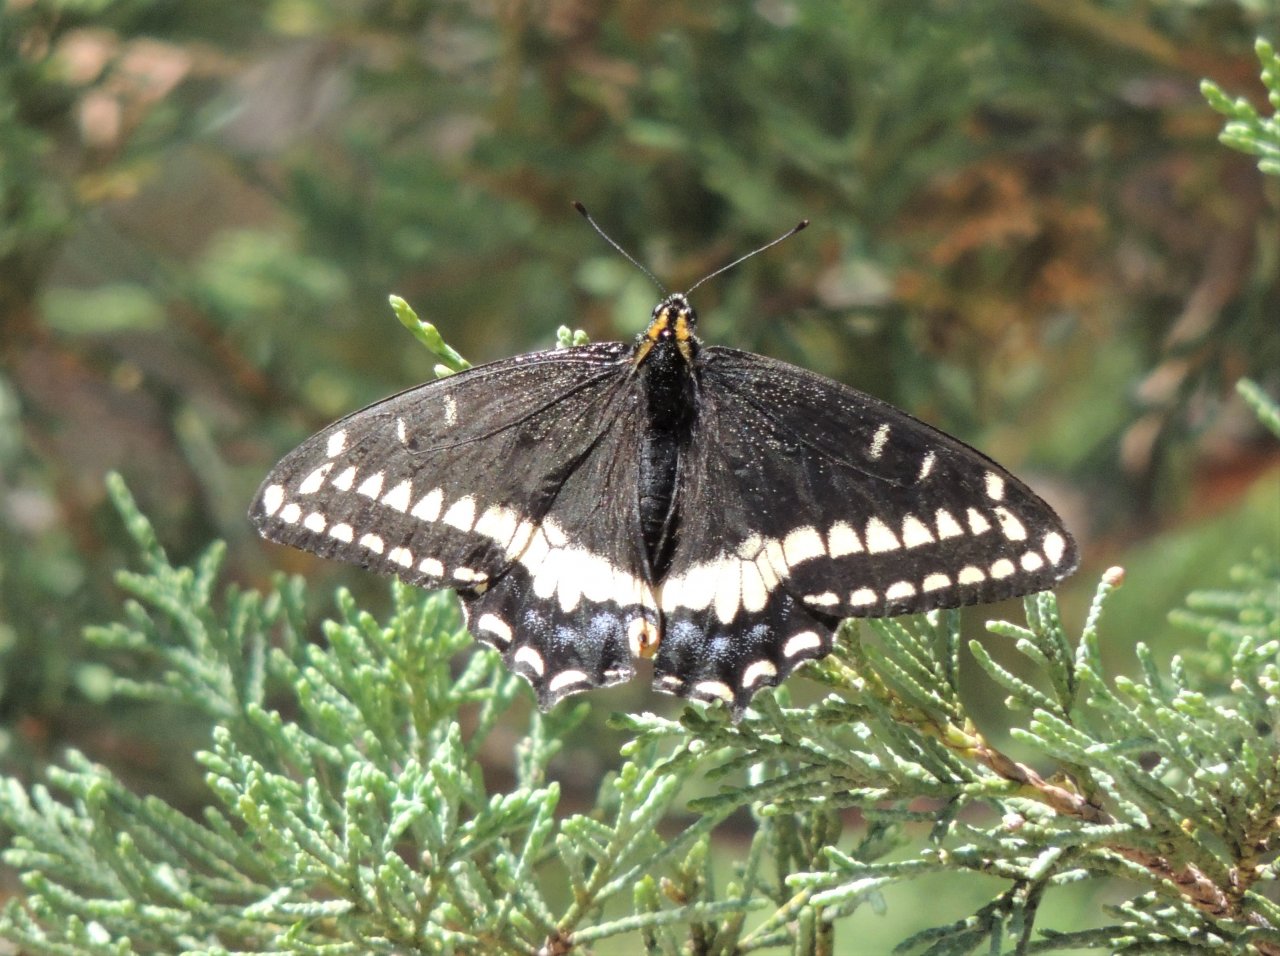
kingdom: Animalia
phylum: Arthropoda
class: Insecta
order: Lepidoptera
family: Papilionidae
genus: Papilio
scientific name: Papilio indra
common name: Indra Swallowtail
